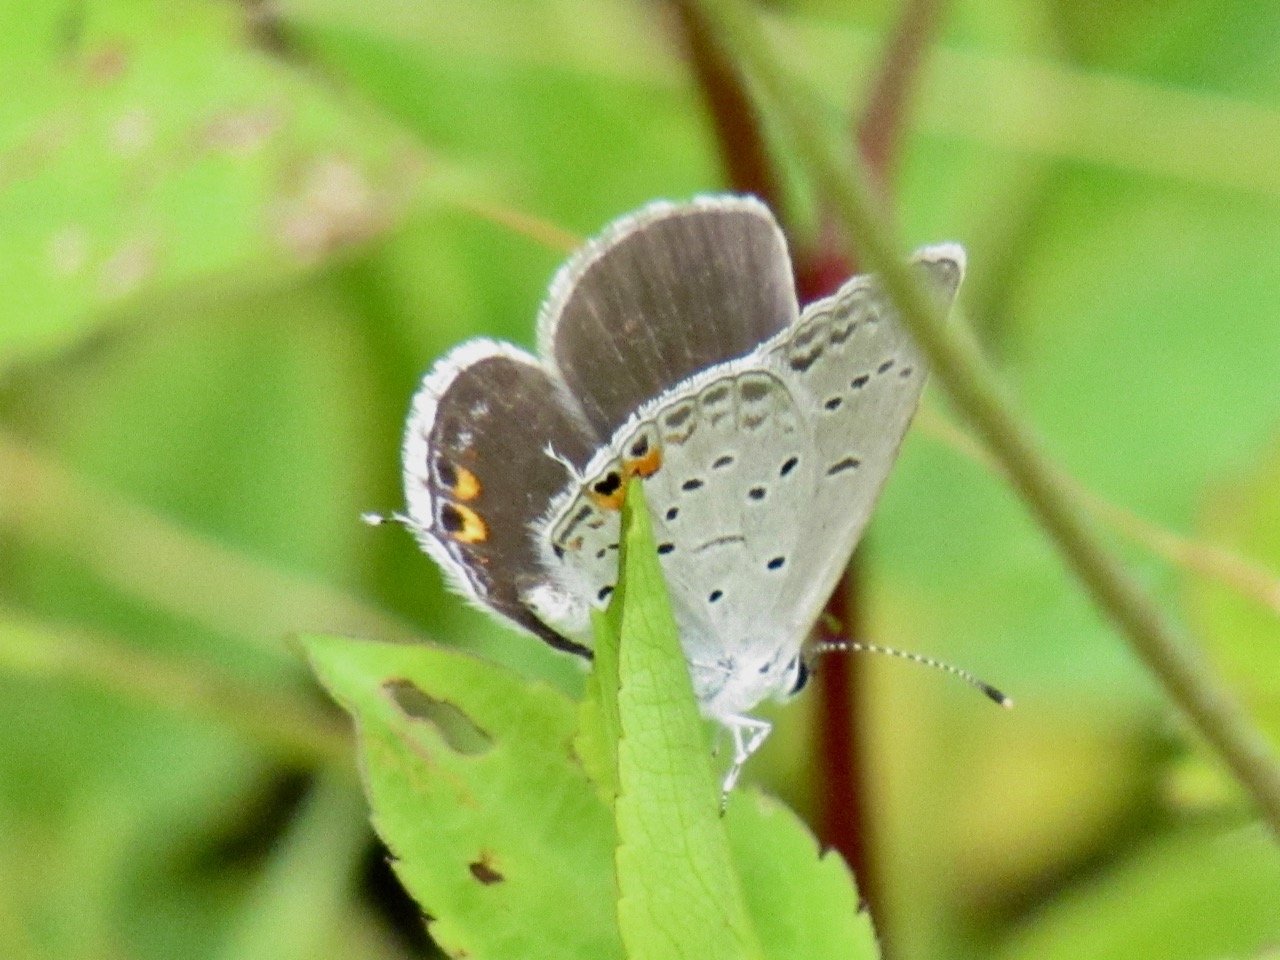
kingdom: Animalia
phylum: Arthropoda
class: Insecta
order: Lepidoptera
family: Lycaenidae
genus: Elkalyce
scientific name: Elkalyce comyntas
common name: Eastern Tailed-Blue
